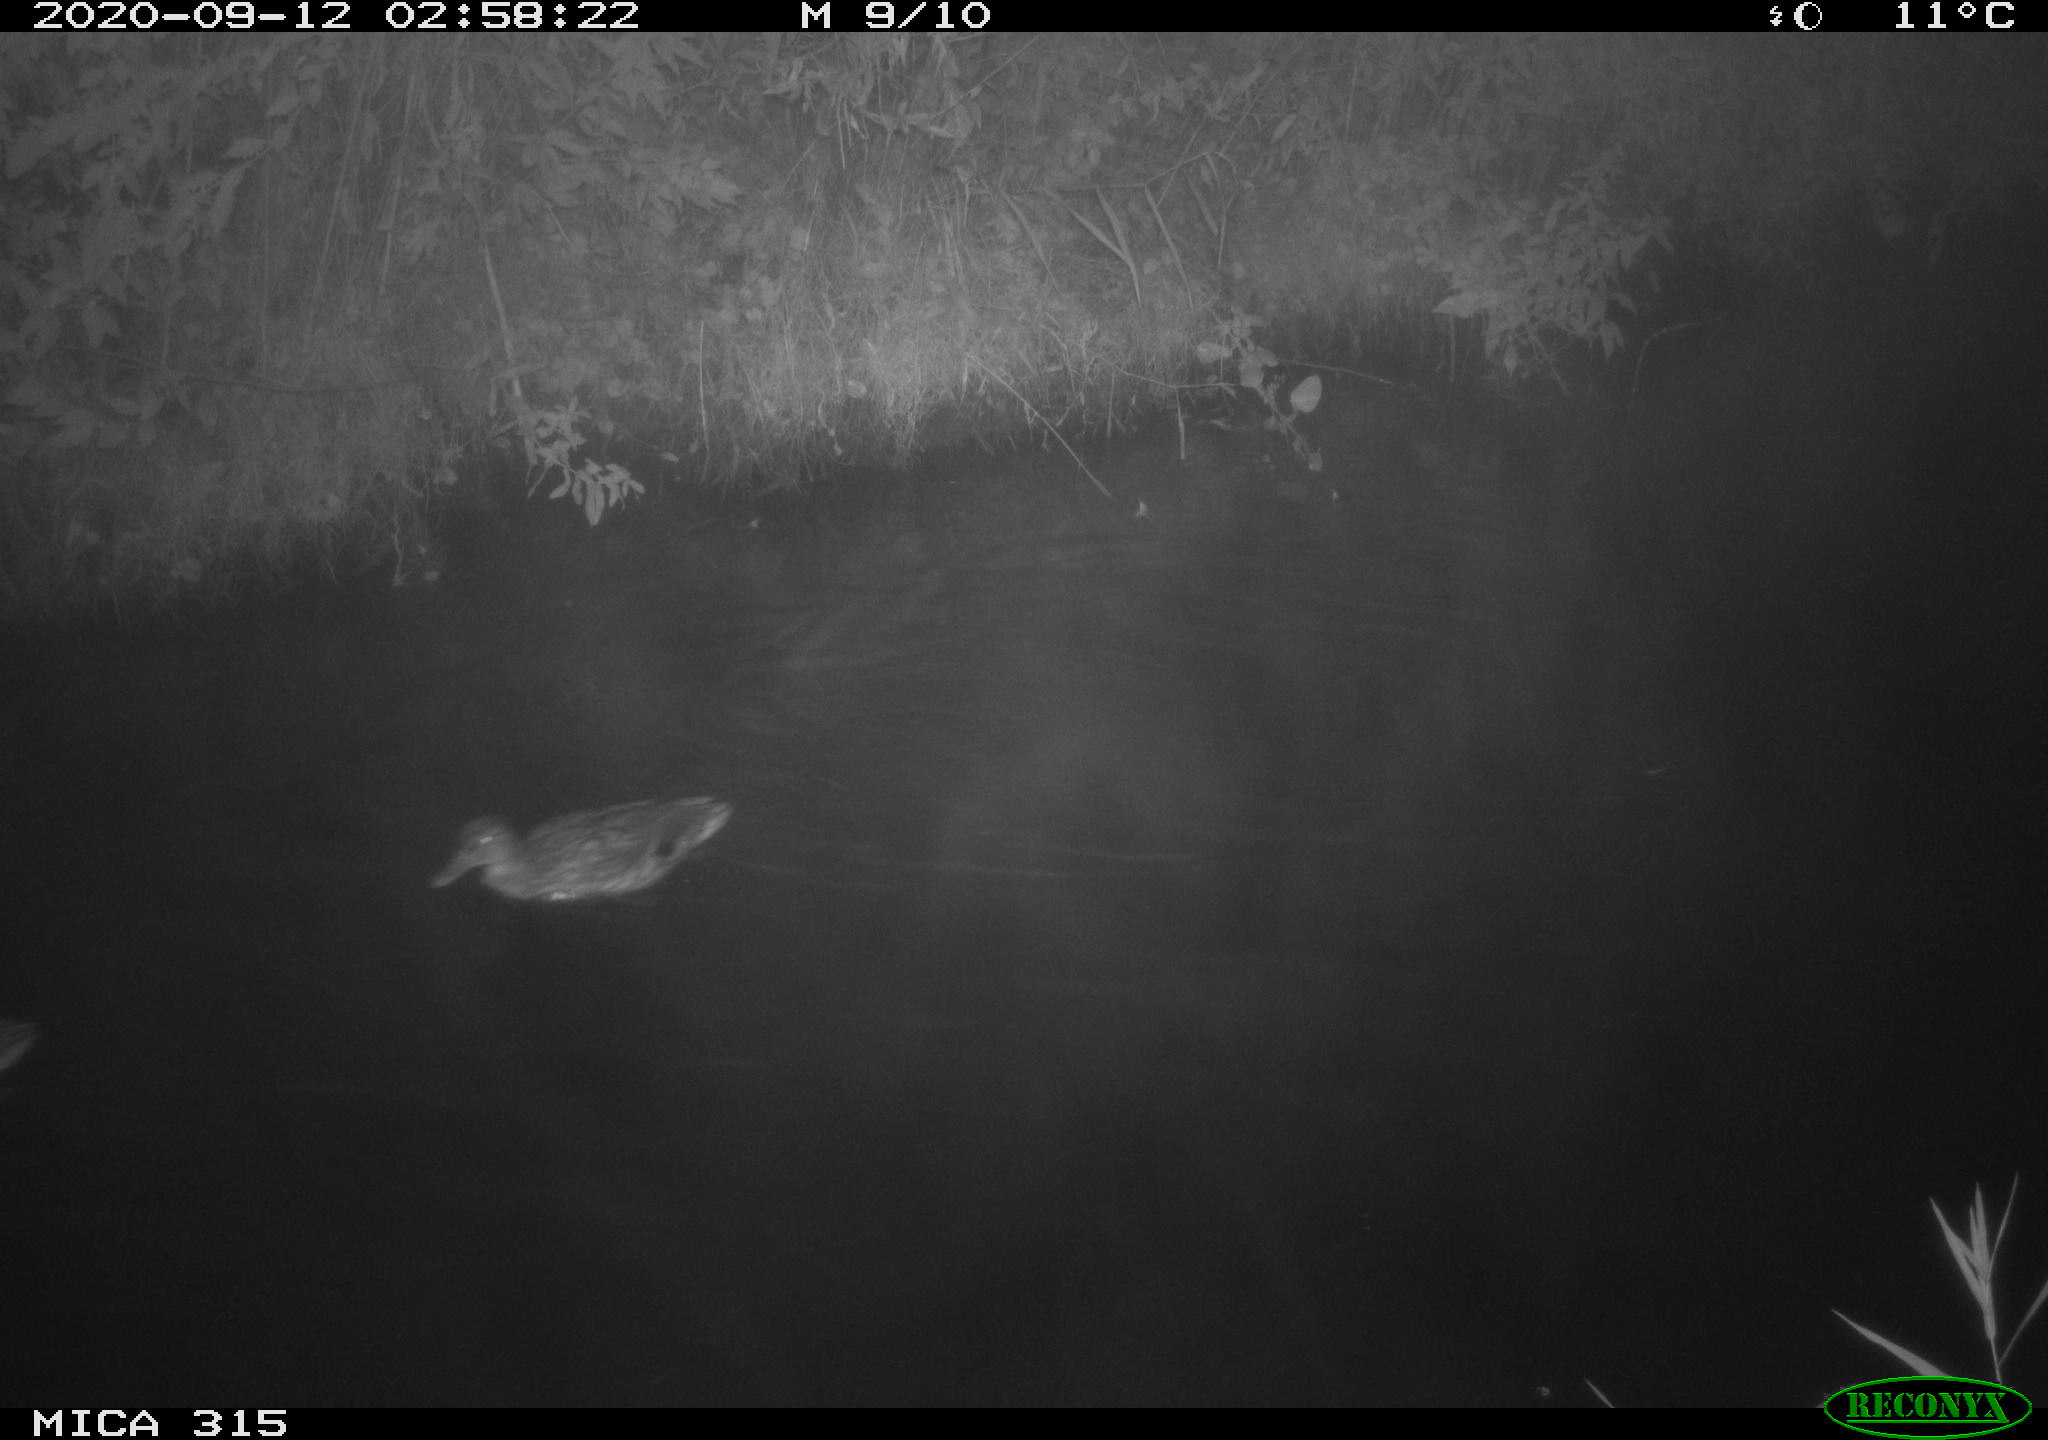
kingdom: Animalia
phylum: Chordata
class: Aves
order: Anseriformes
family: Anatidae
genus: Anas
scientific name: Anas platyrhynchos
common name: Mallard
